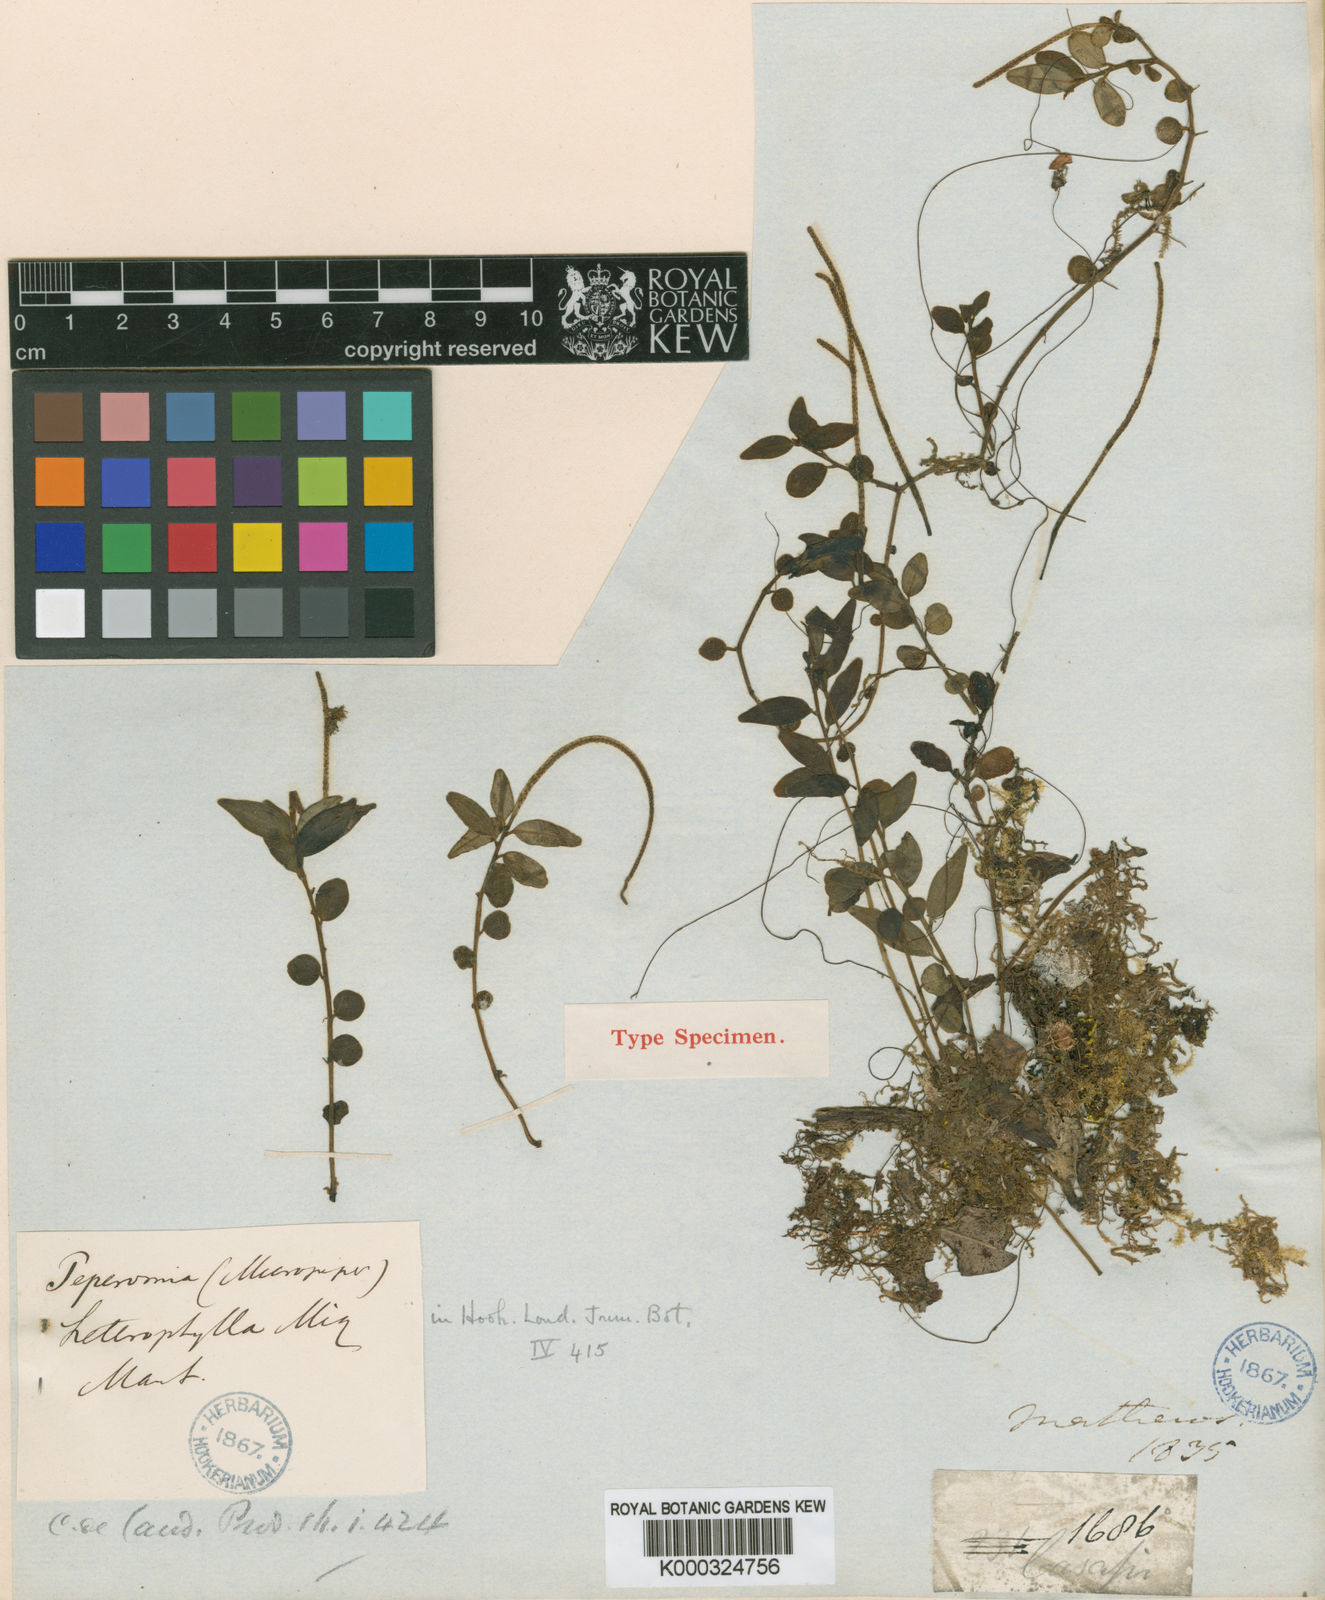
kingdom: Plantae
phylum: Tracheophyta
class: Magnoliopsida
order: Piperales
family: Piperaceae
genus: Peperomia
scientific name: Peperomia heterophylla
